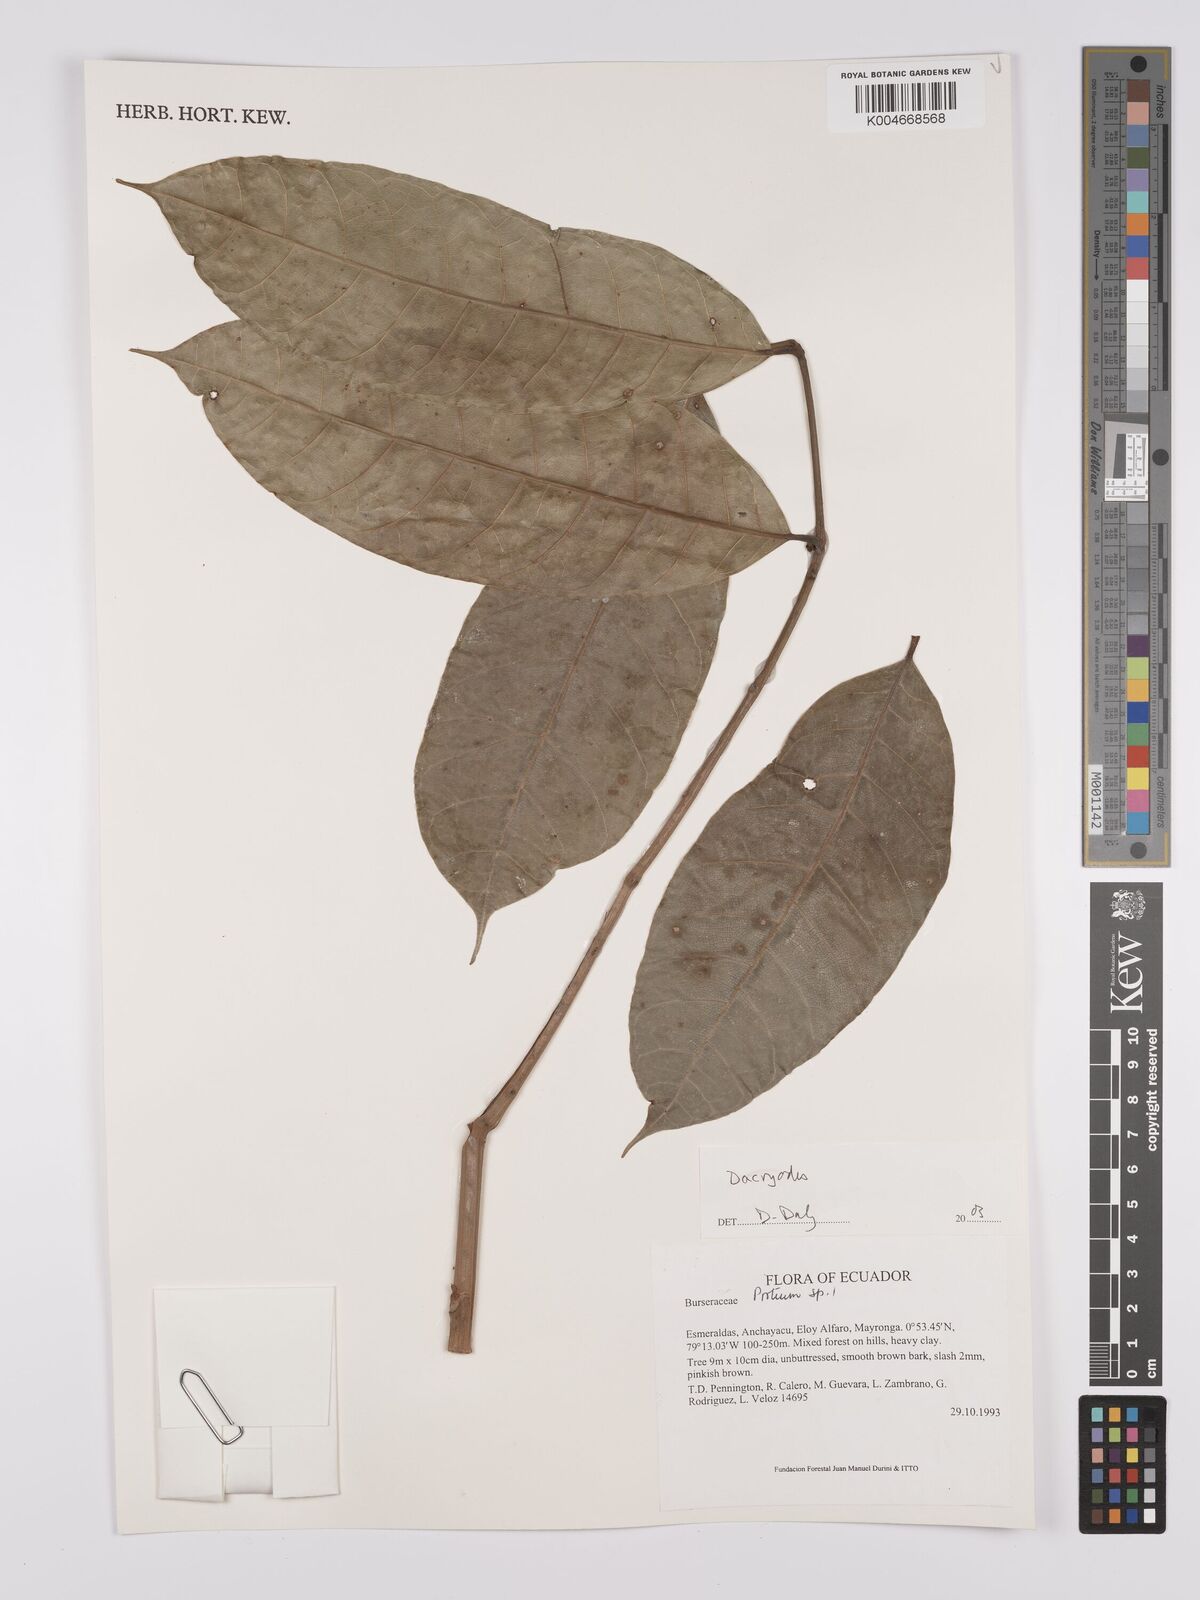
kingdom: Plantae
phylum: Tracheophyta
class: Magnoliopsida
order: Sapindales
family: Burseraceae
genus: Dacryodes
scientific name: Dacryodes
